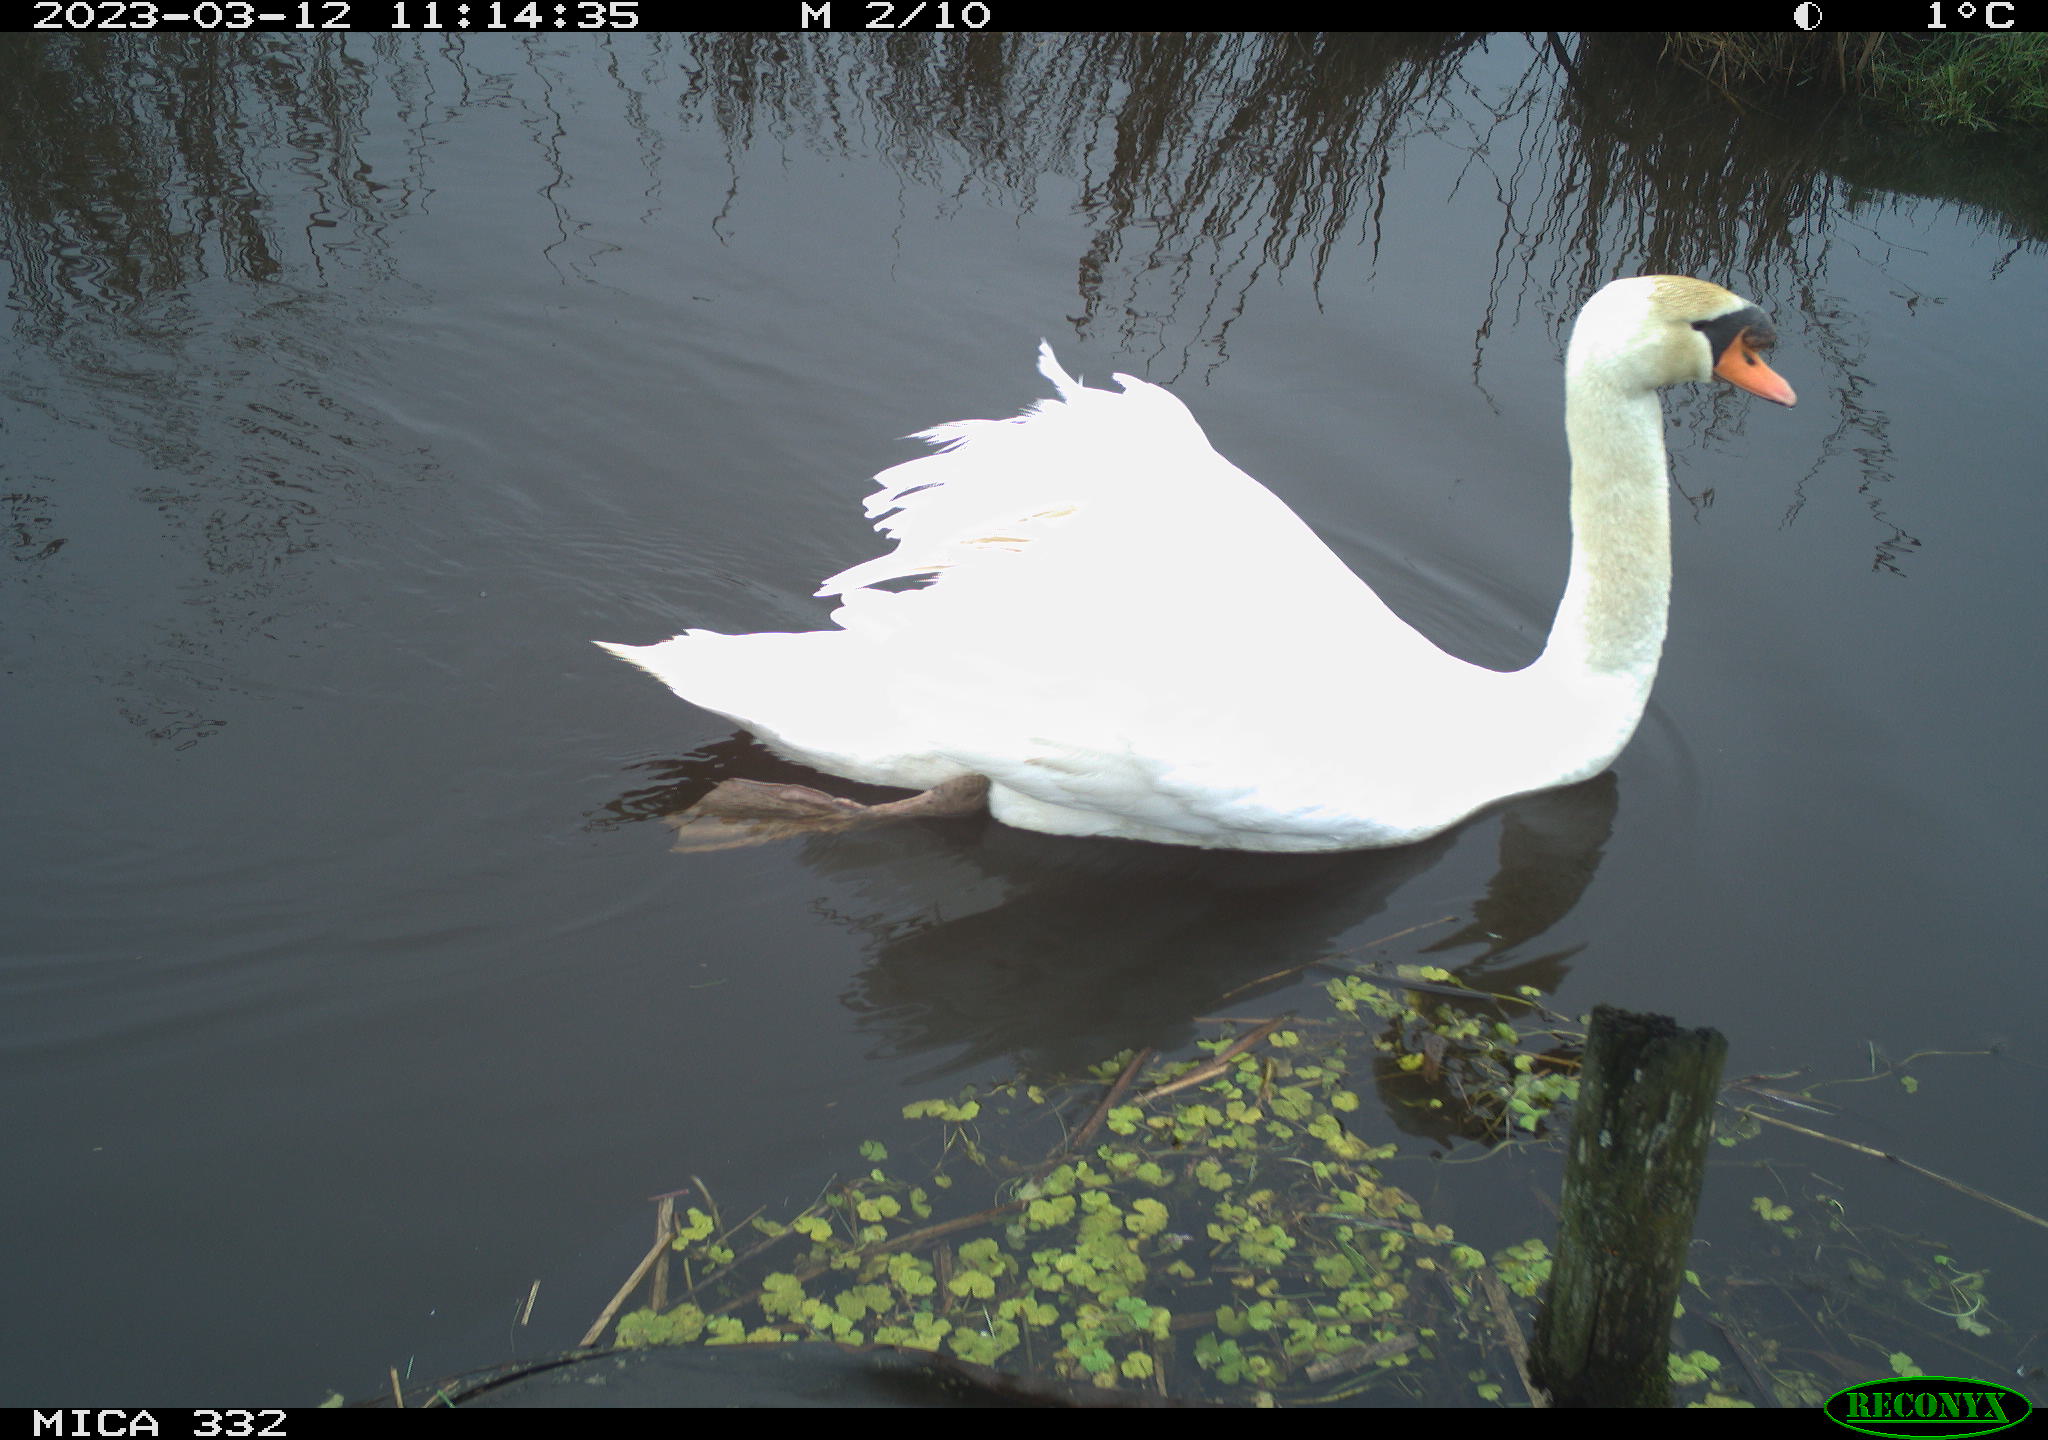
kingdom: Animalia
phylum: Chordata
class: Aves
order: Anseriformes
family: Anatidae
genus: Cygnus
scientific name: Cygnus olor
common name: Mute swan
